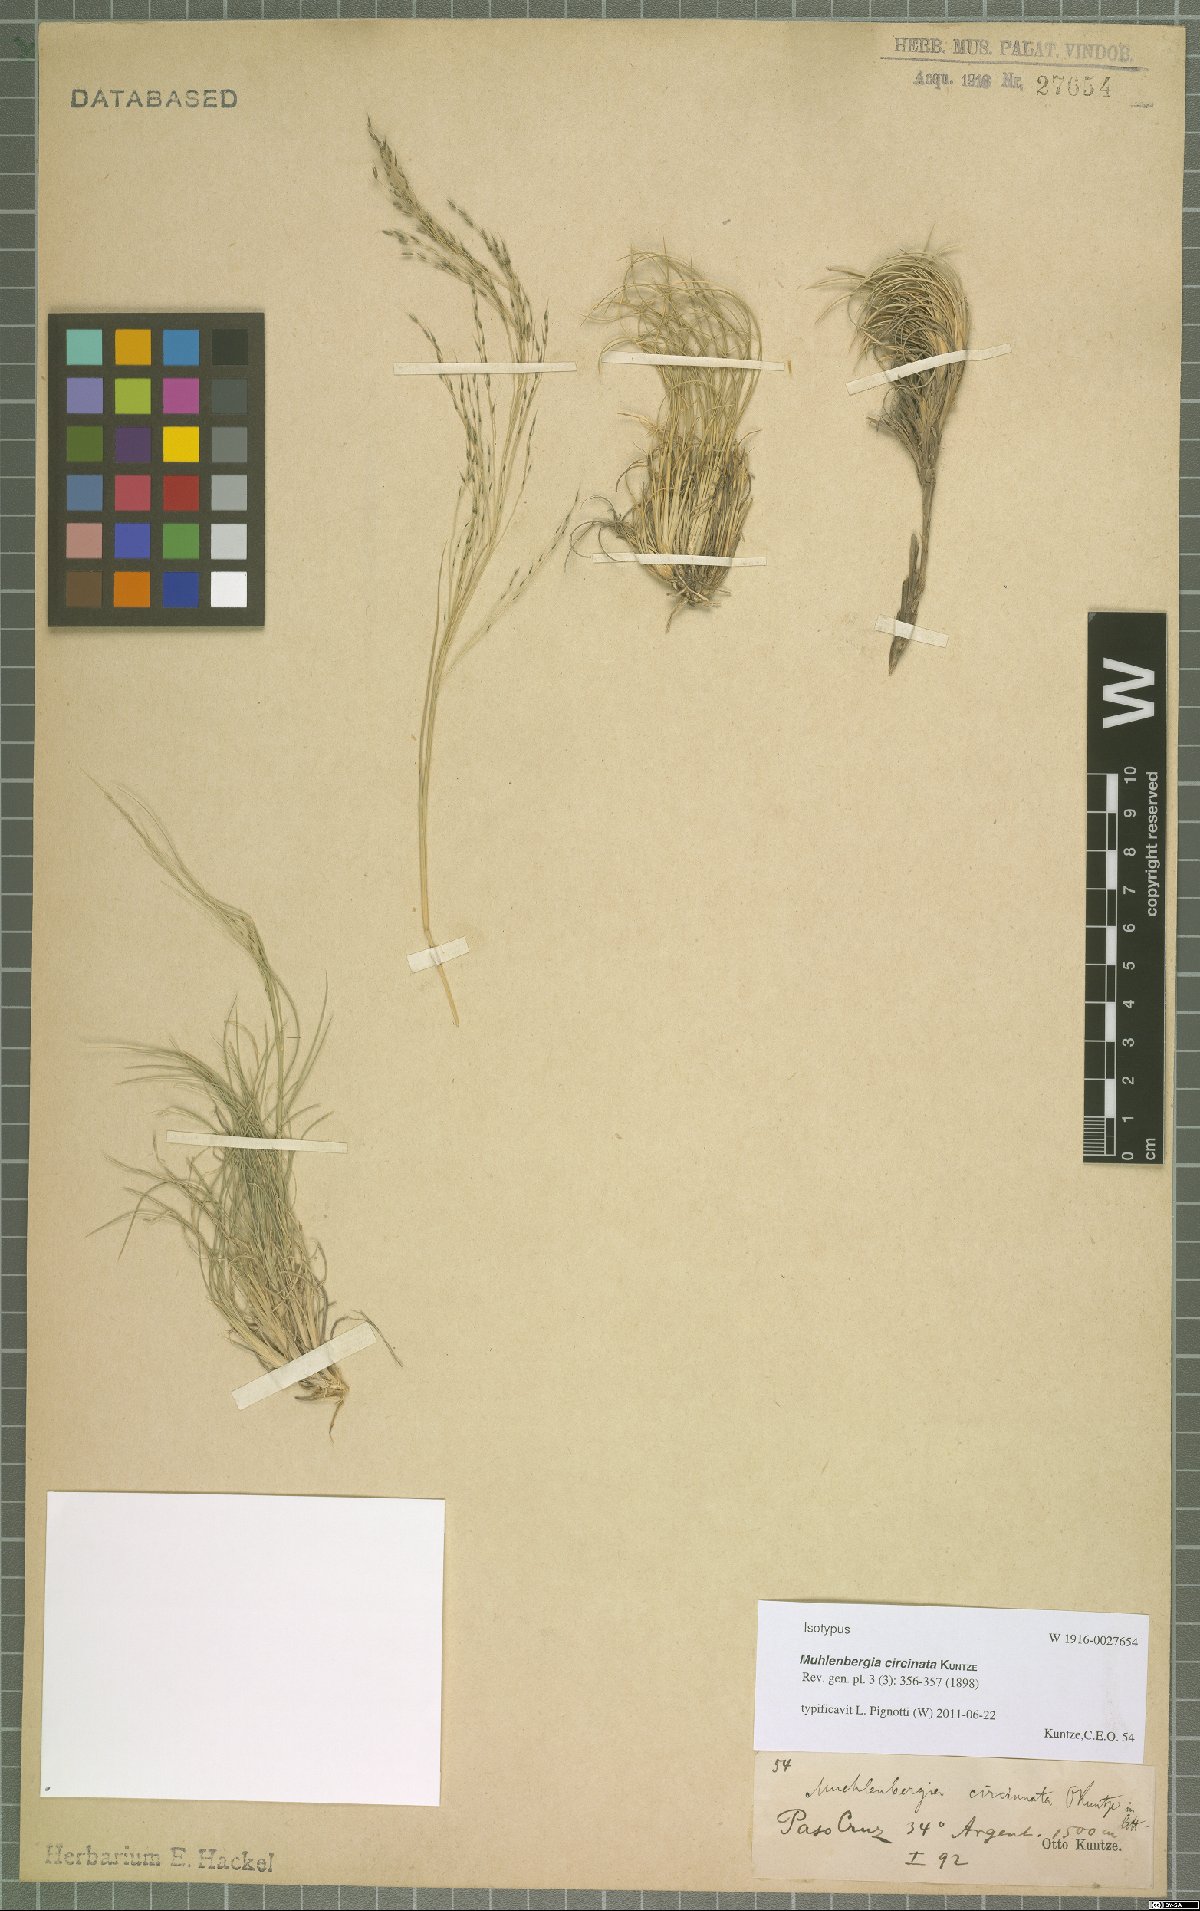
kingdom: Plantae
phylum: Tracheophyta
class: Liliopsida
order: Poales
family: Poaceae
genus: Muhlenbergia
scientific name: Muhlenbergia torreyi
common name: Ring grass
